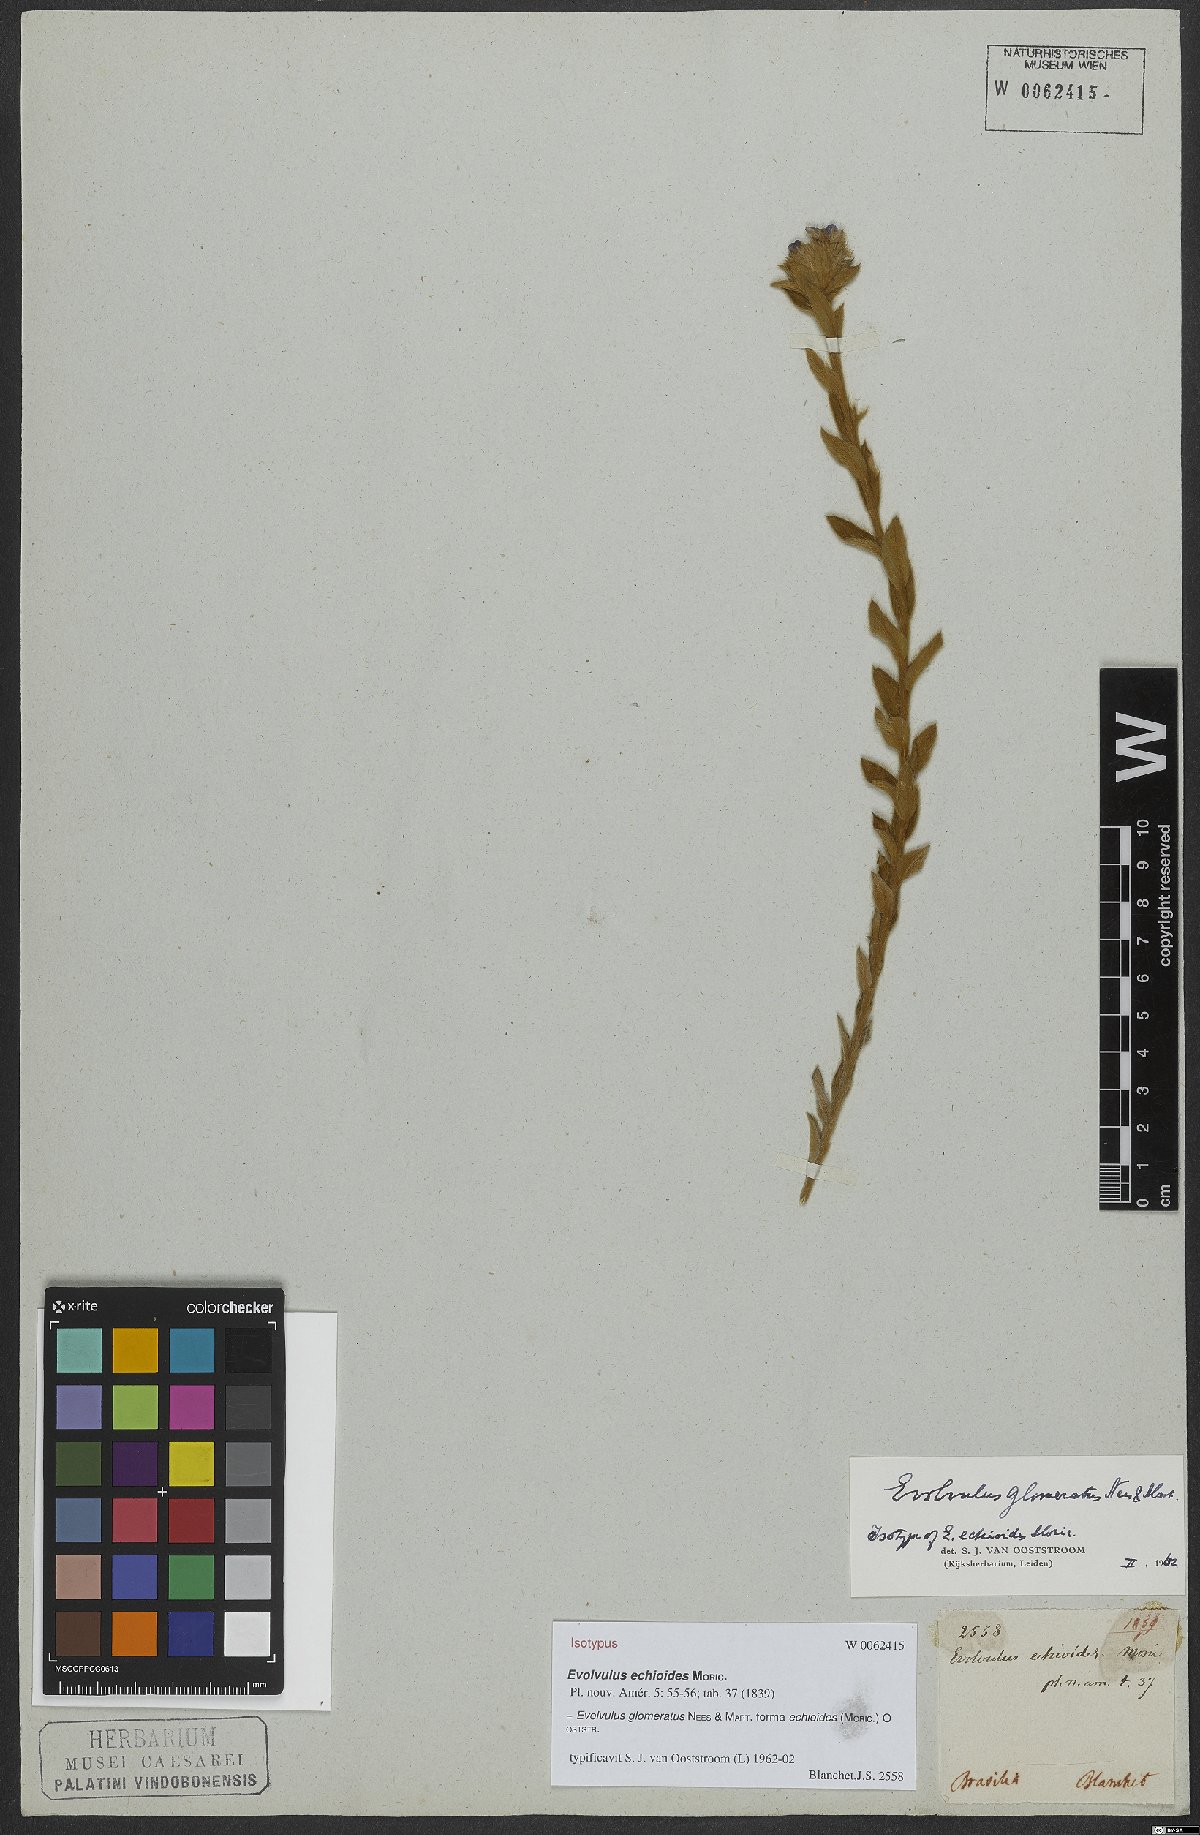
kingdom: Plantae
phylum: Tracheophyta
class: Magnoliopsida
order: Solanales
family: Convolvulaceae
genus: Evolvulus
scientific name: Evolvulus echioides
